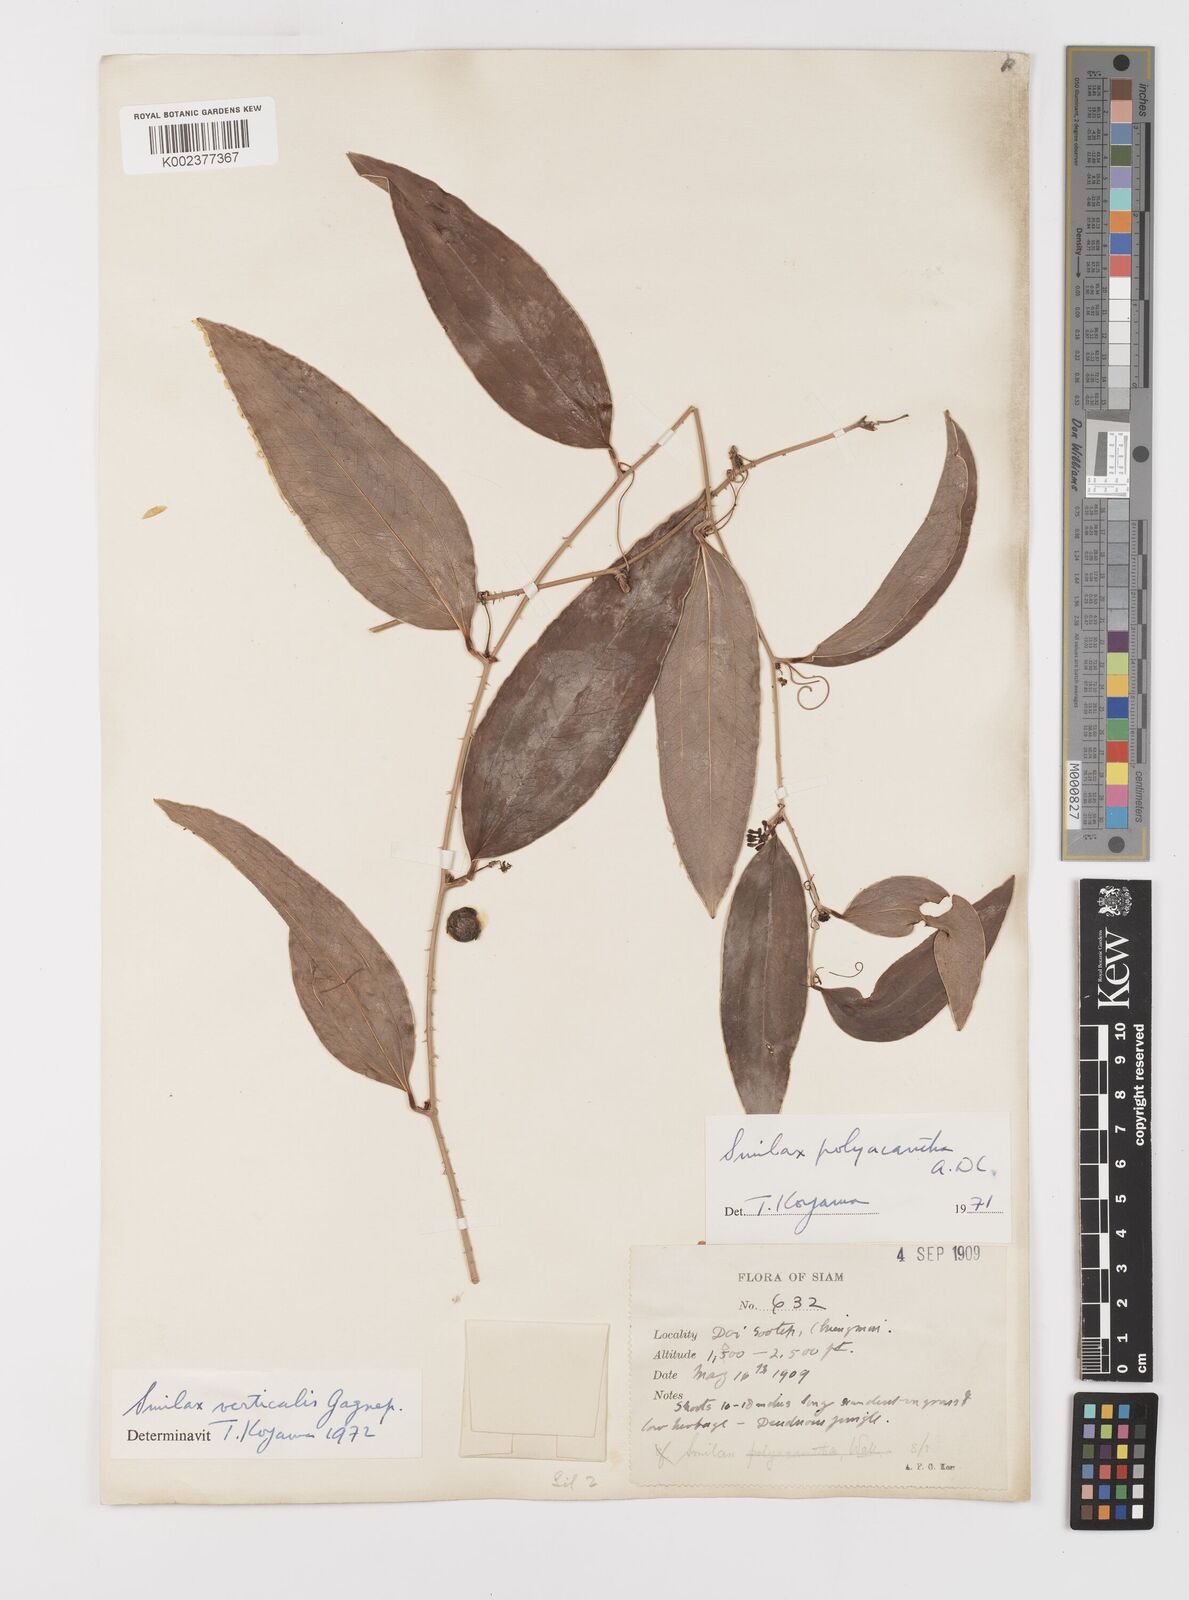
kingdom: Plantae
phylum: Tracheophyta
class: Liliopsida
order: Liliales
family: Smilacaceae
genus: Smilax
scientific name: Smilax verticalis
